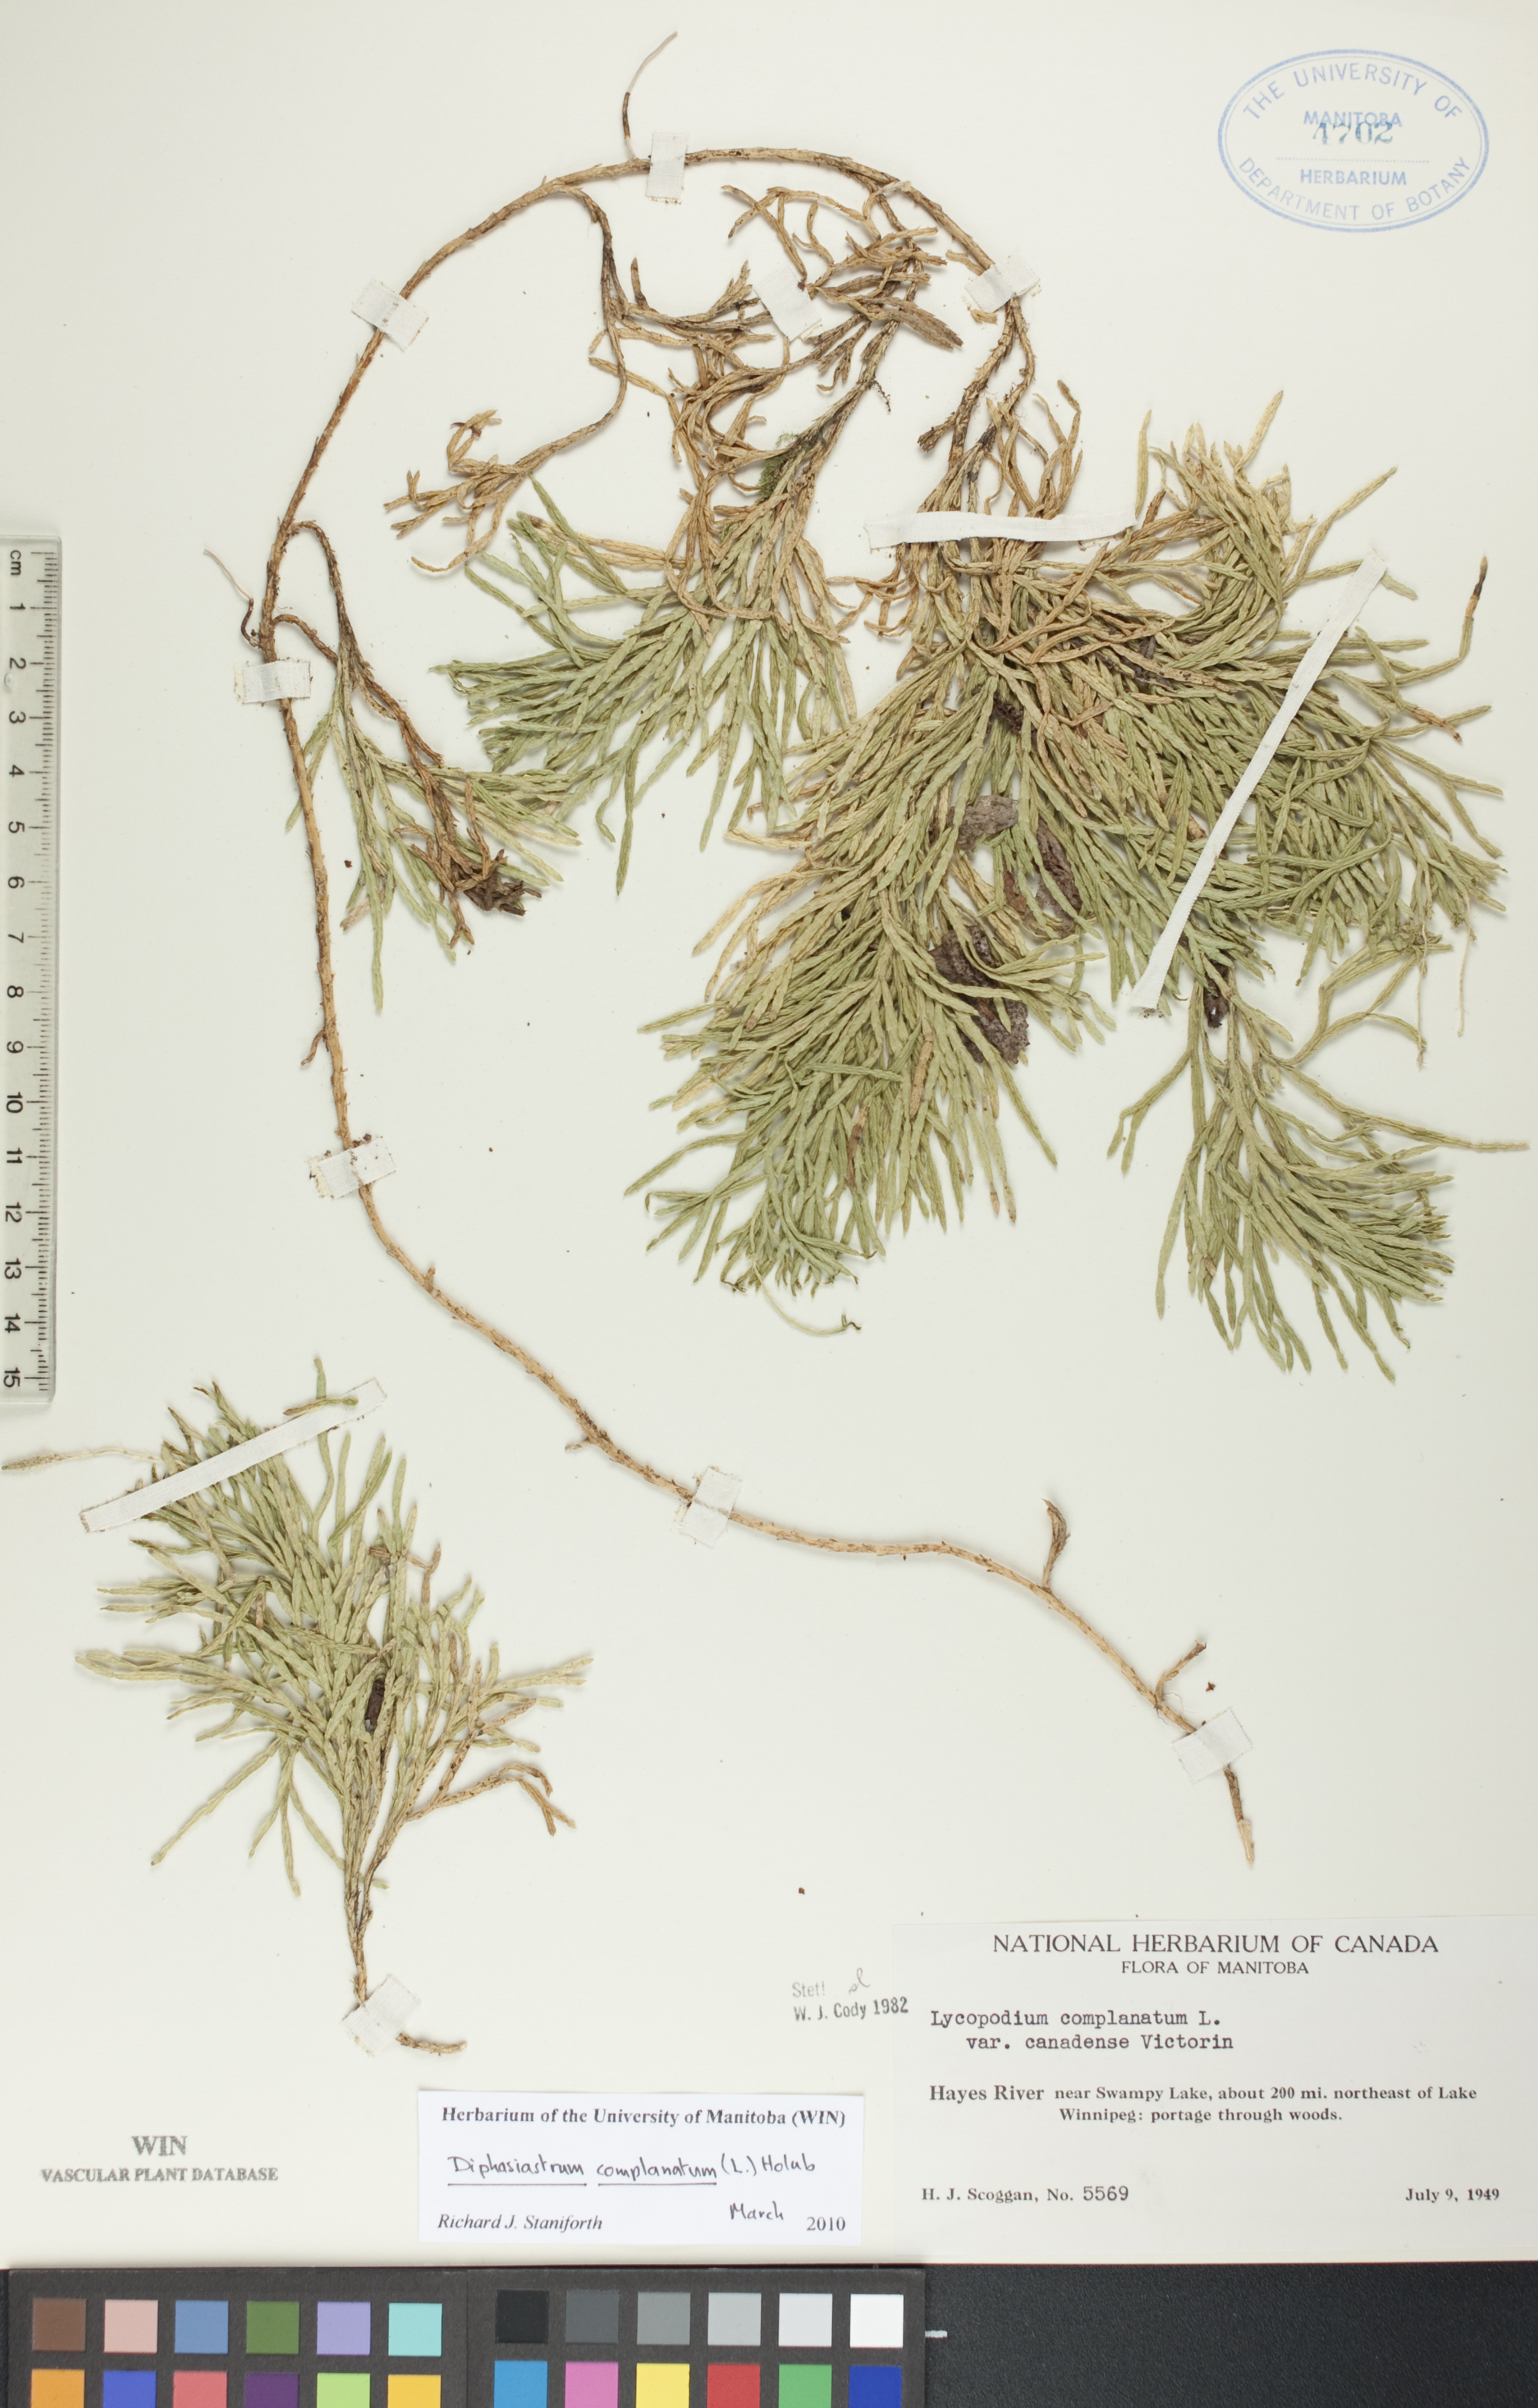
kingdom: Plantae
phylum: Tracheophyta
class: Lycopodiopsida
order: Lycopodiales
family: Lycopodiaceae
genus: Diphasiastrum
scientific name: Diphasiastrum complanatum
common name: Northern running-pine
